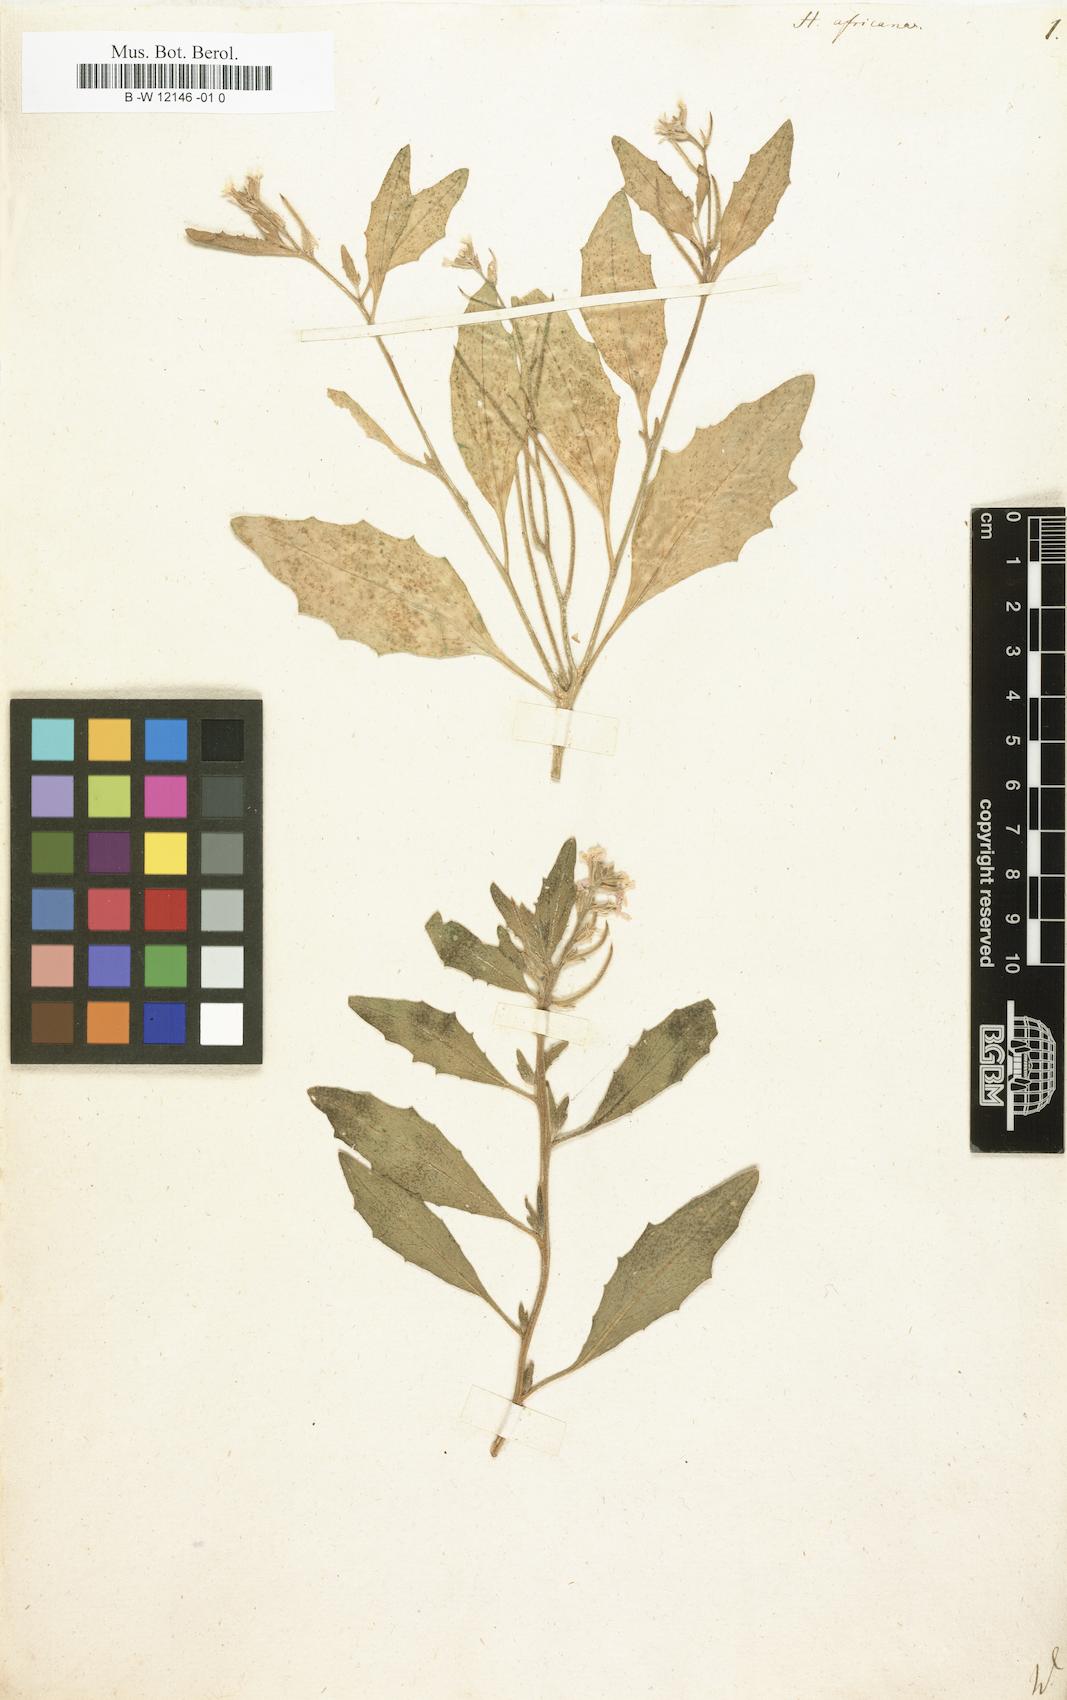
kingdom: Plantae
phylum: Tracheophyta
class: Magnoliopsida
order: Brassicales
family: Brassicaceae
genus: Strigosella
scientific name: Strigosella africana
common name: African mustard
